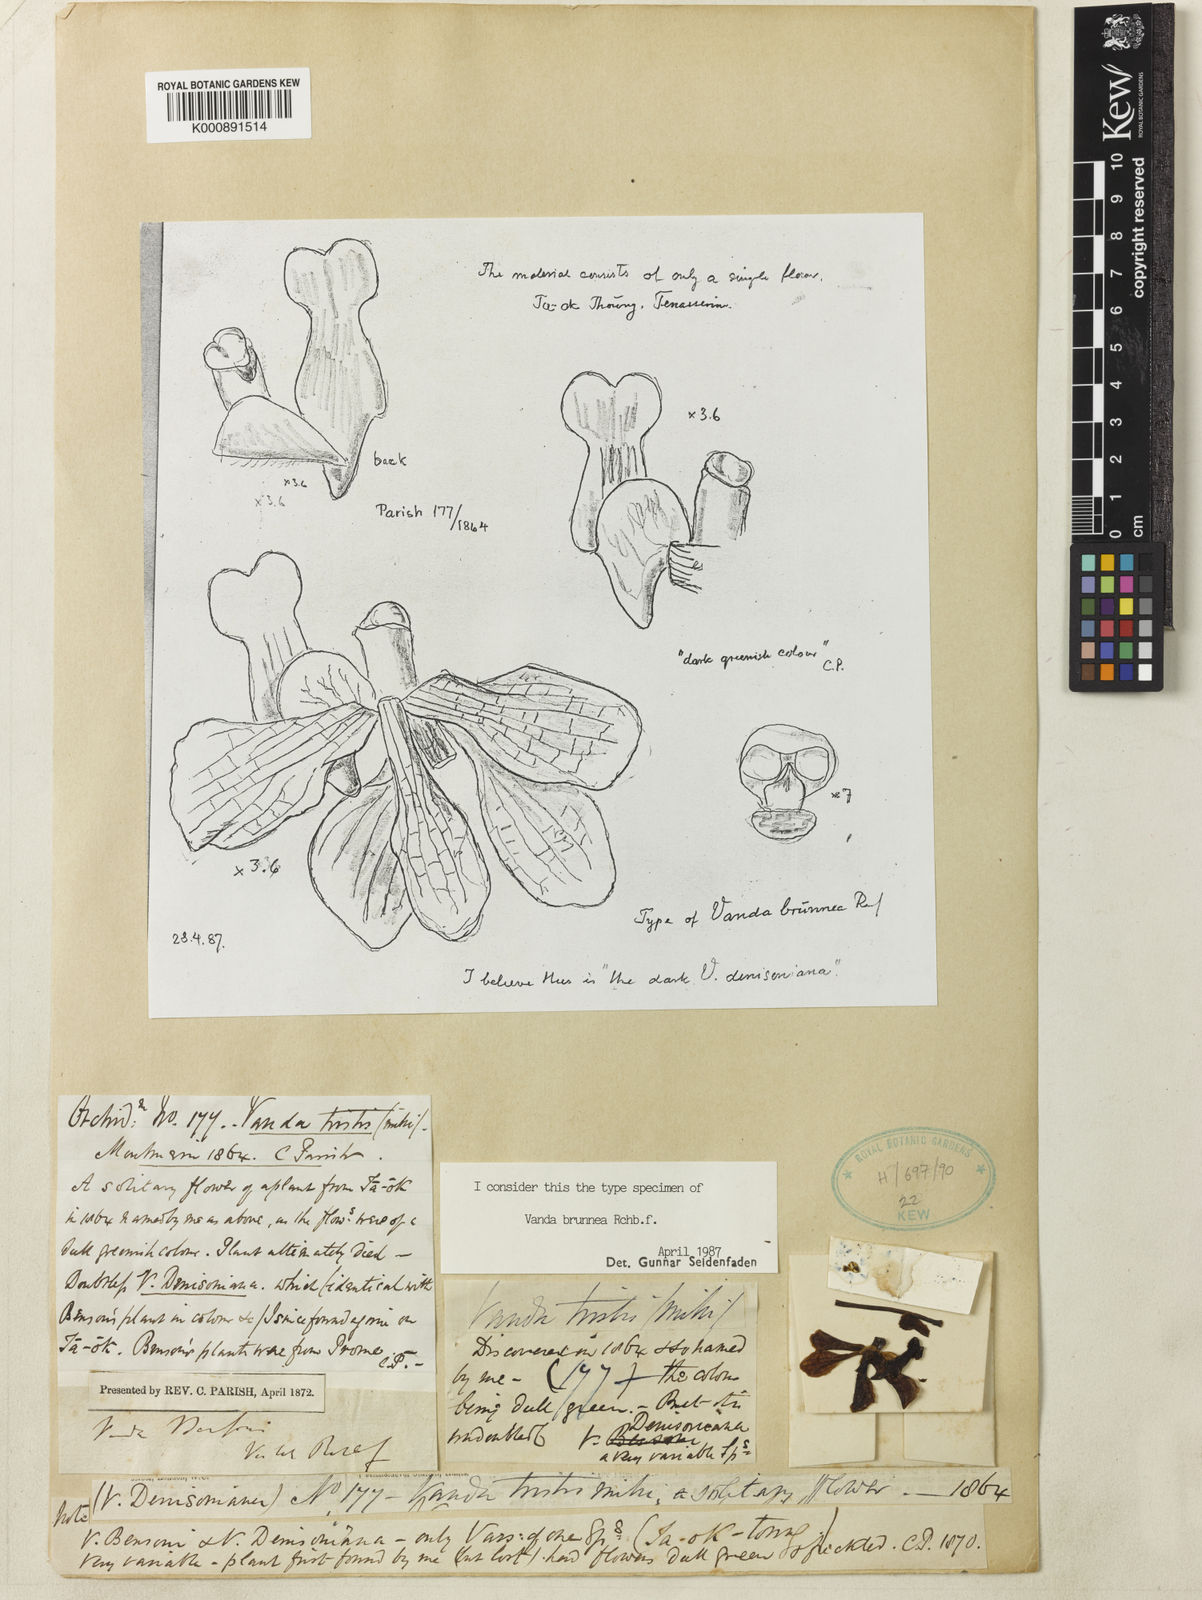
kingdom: Plantae
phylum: Tracheophyta
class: Liliopsida
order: Asparagales
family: Orchidaceae
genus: Vanda
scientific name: Vanda brunnea
